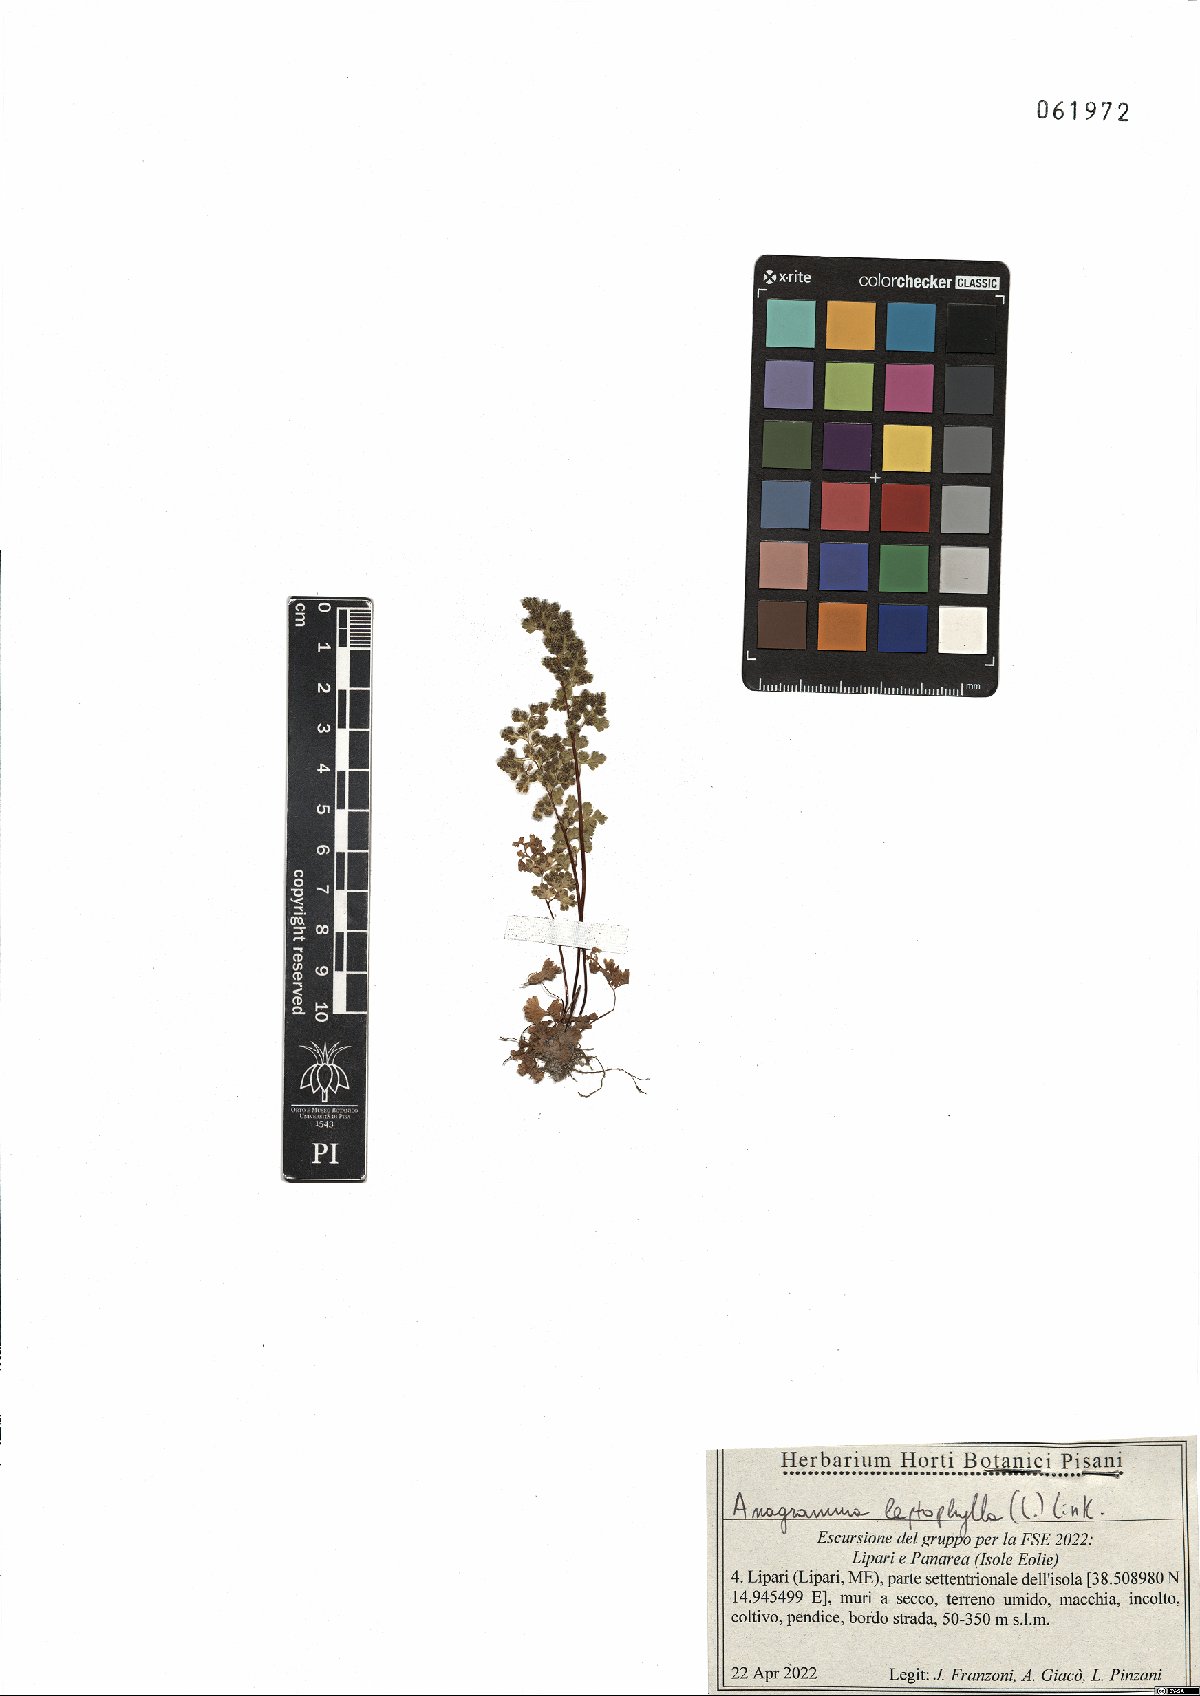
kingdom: Plantae
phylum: Tracheophyta
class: Polypodiopsida
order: Polypodiales
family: Pteridaceae
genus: Anogramma
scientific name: Anogramma leptophylla
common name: Jersey fern
